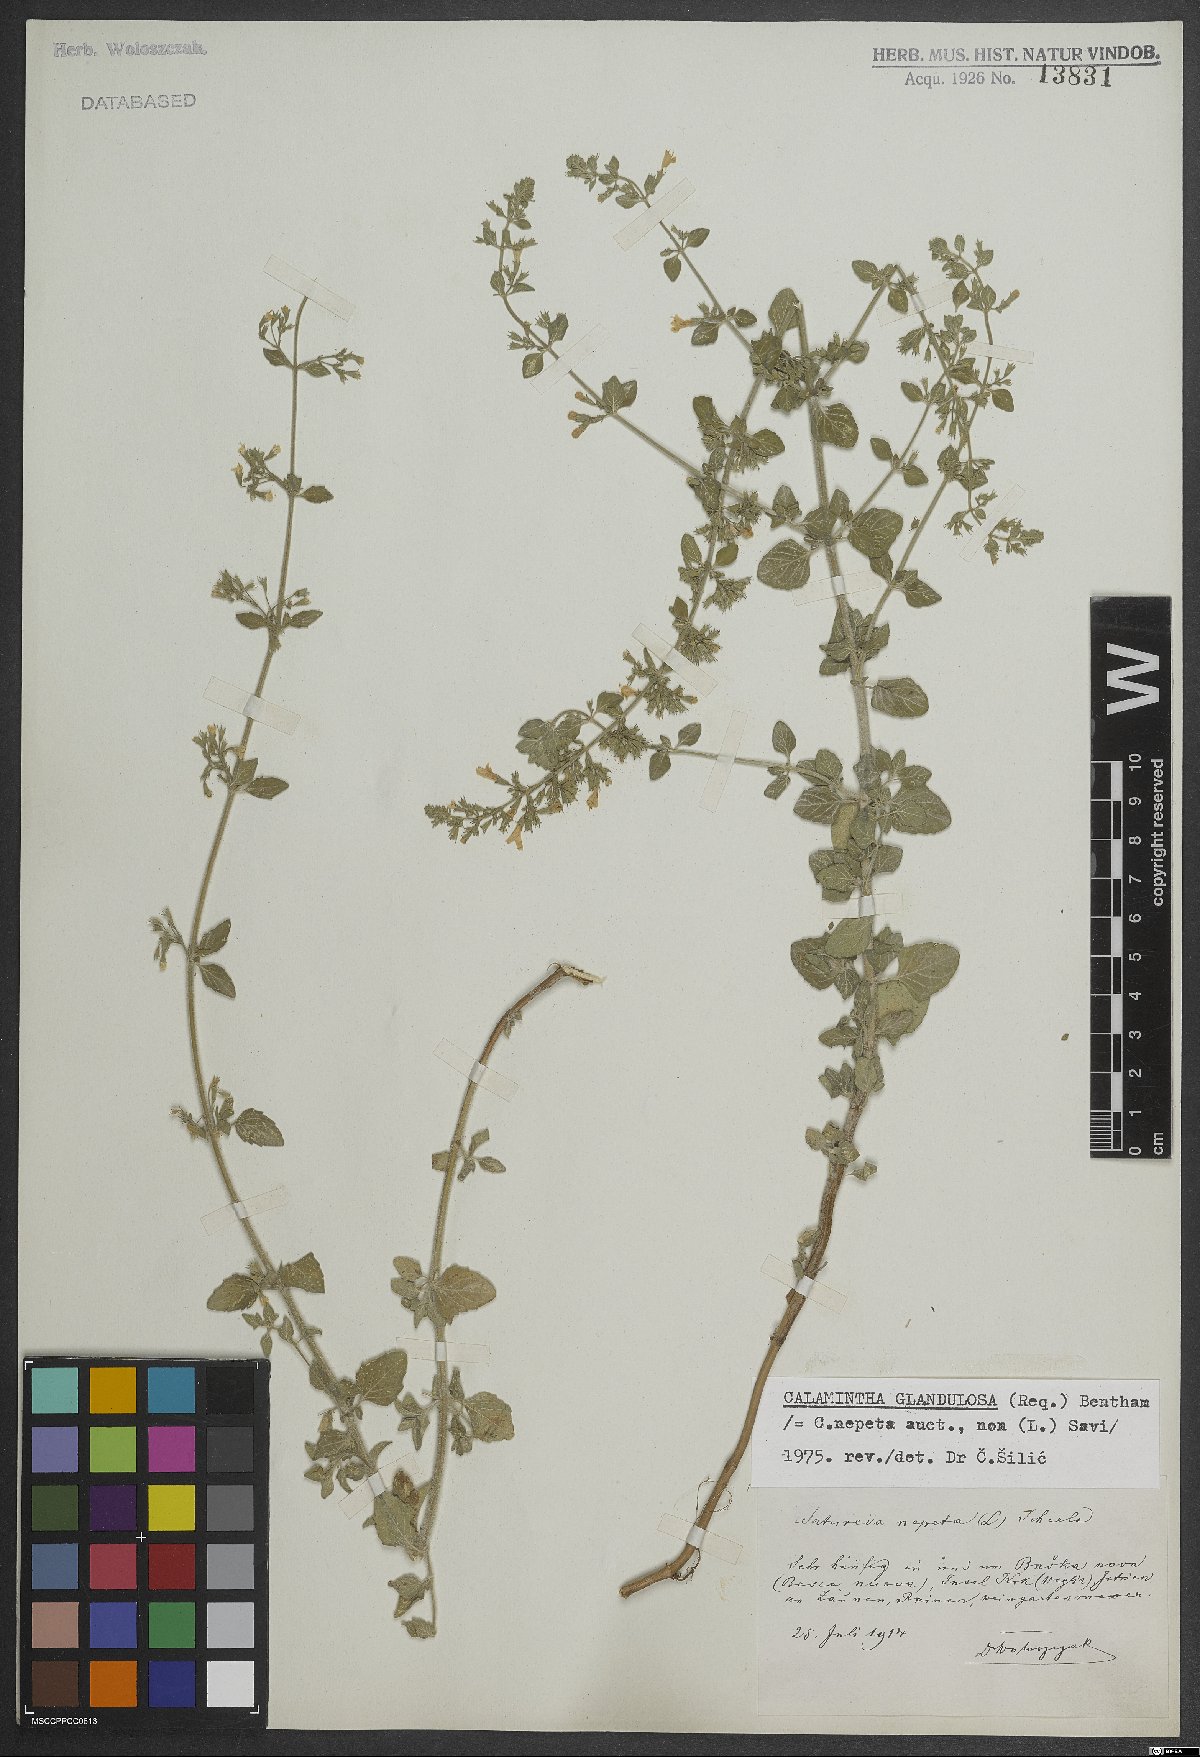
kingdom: Plantae
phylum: Tracheophyta
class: Magnoliopsida
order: Lamiales
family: Lamiaceae
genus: Clinopodium
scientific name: Clinopodium nepeta
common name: Lesser calamint
